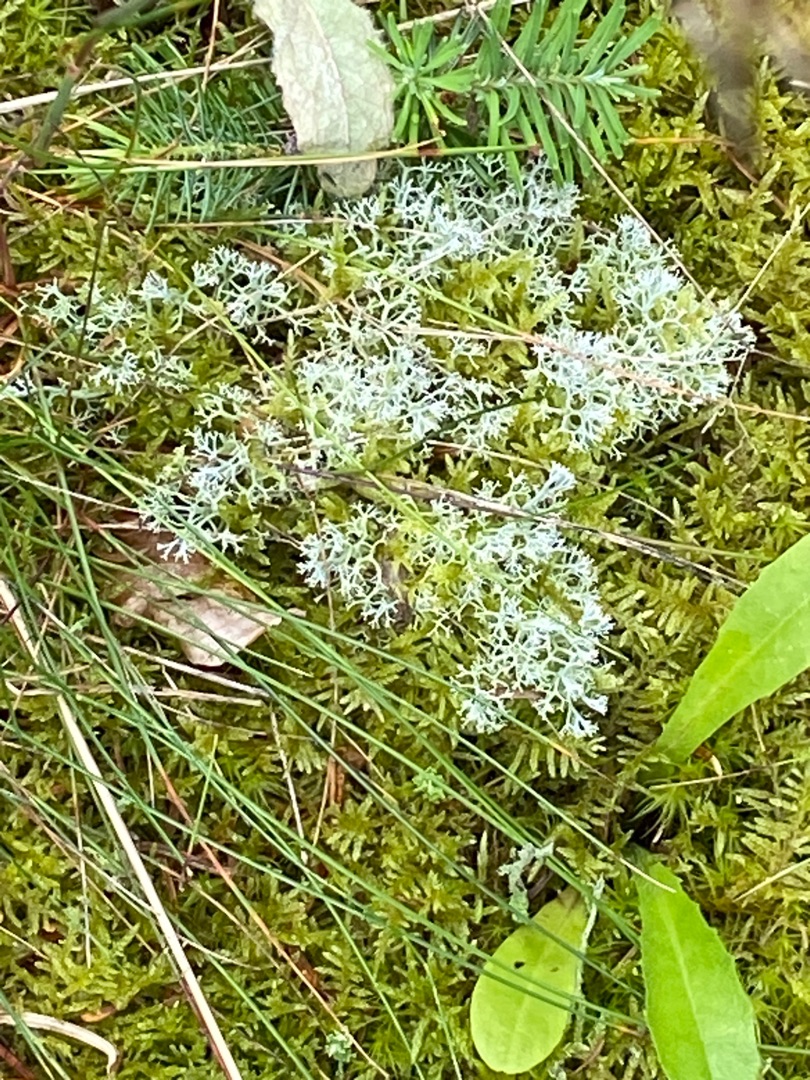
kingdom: Fungi
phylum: Ascomycota
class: Lecanoromycetes
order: Lecanorales
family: Cladoniaceae
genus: Cladonia
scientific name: Cladonia portentosa
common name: Hede-rensdyrlav
